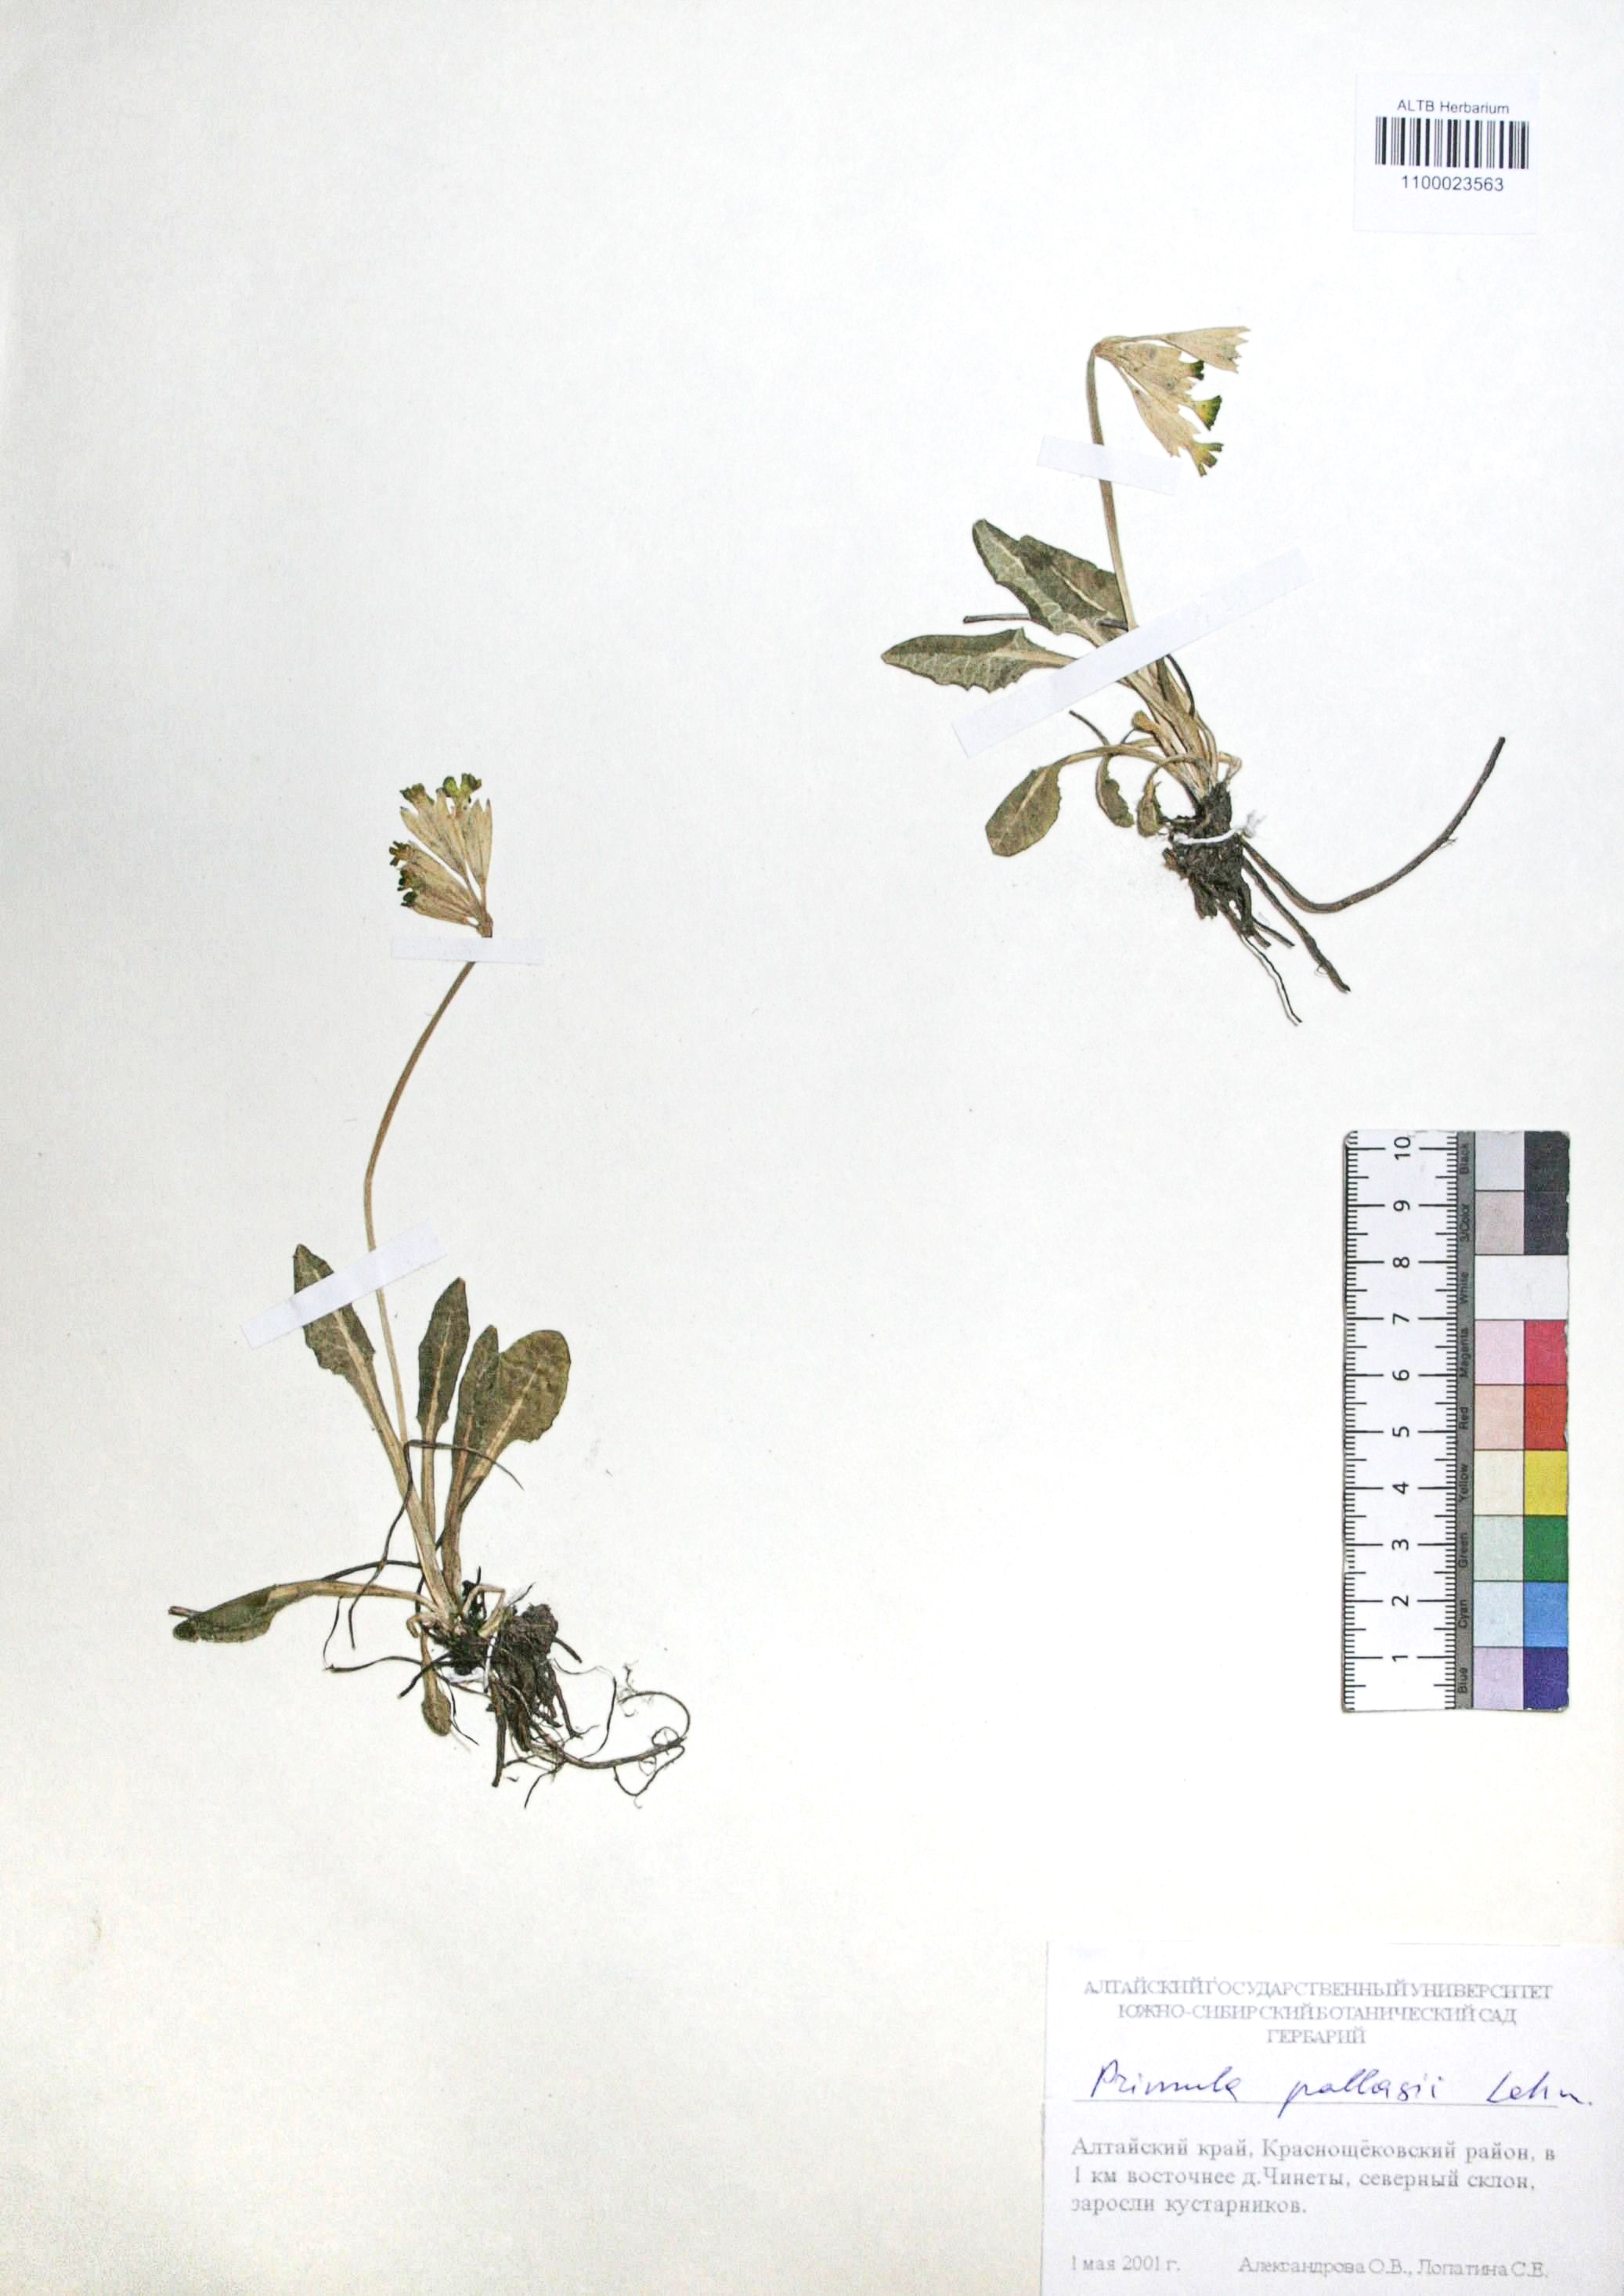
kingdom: Plantae
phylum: Tracheophyta
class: Magnoliopsida
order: Ericales
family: Primulaceae
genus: Primula
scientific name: Primula elatior
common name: Oxlip
